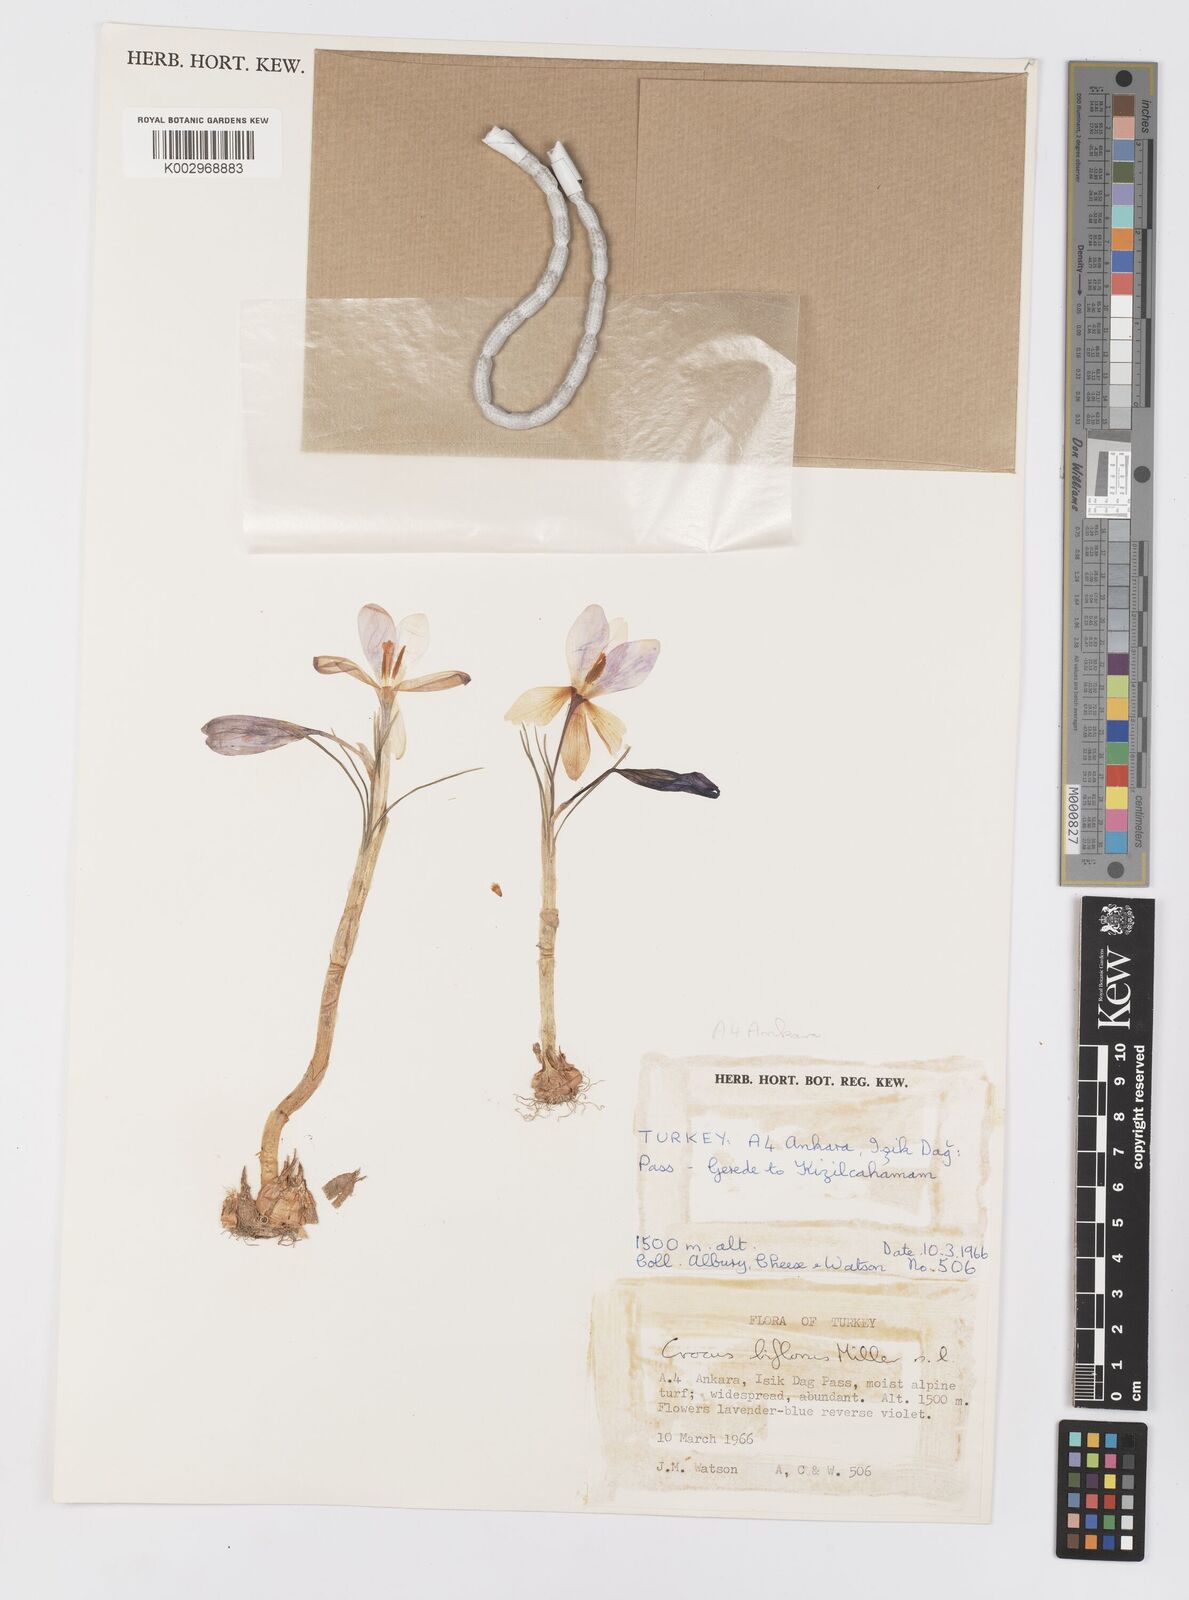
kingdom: Plantae
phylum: Tracheophyta
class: Liliopsida
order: Asparagales
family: Iridaceae
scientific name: Iridaceae
